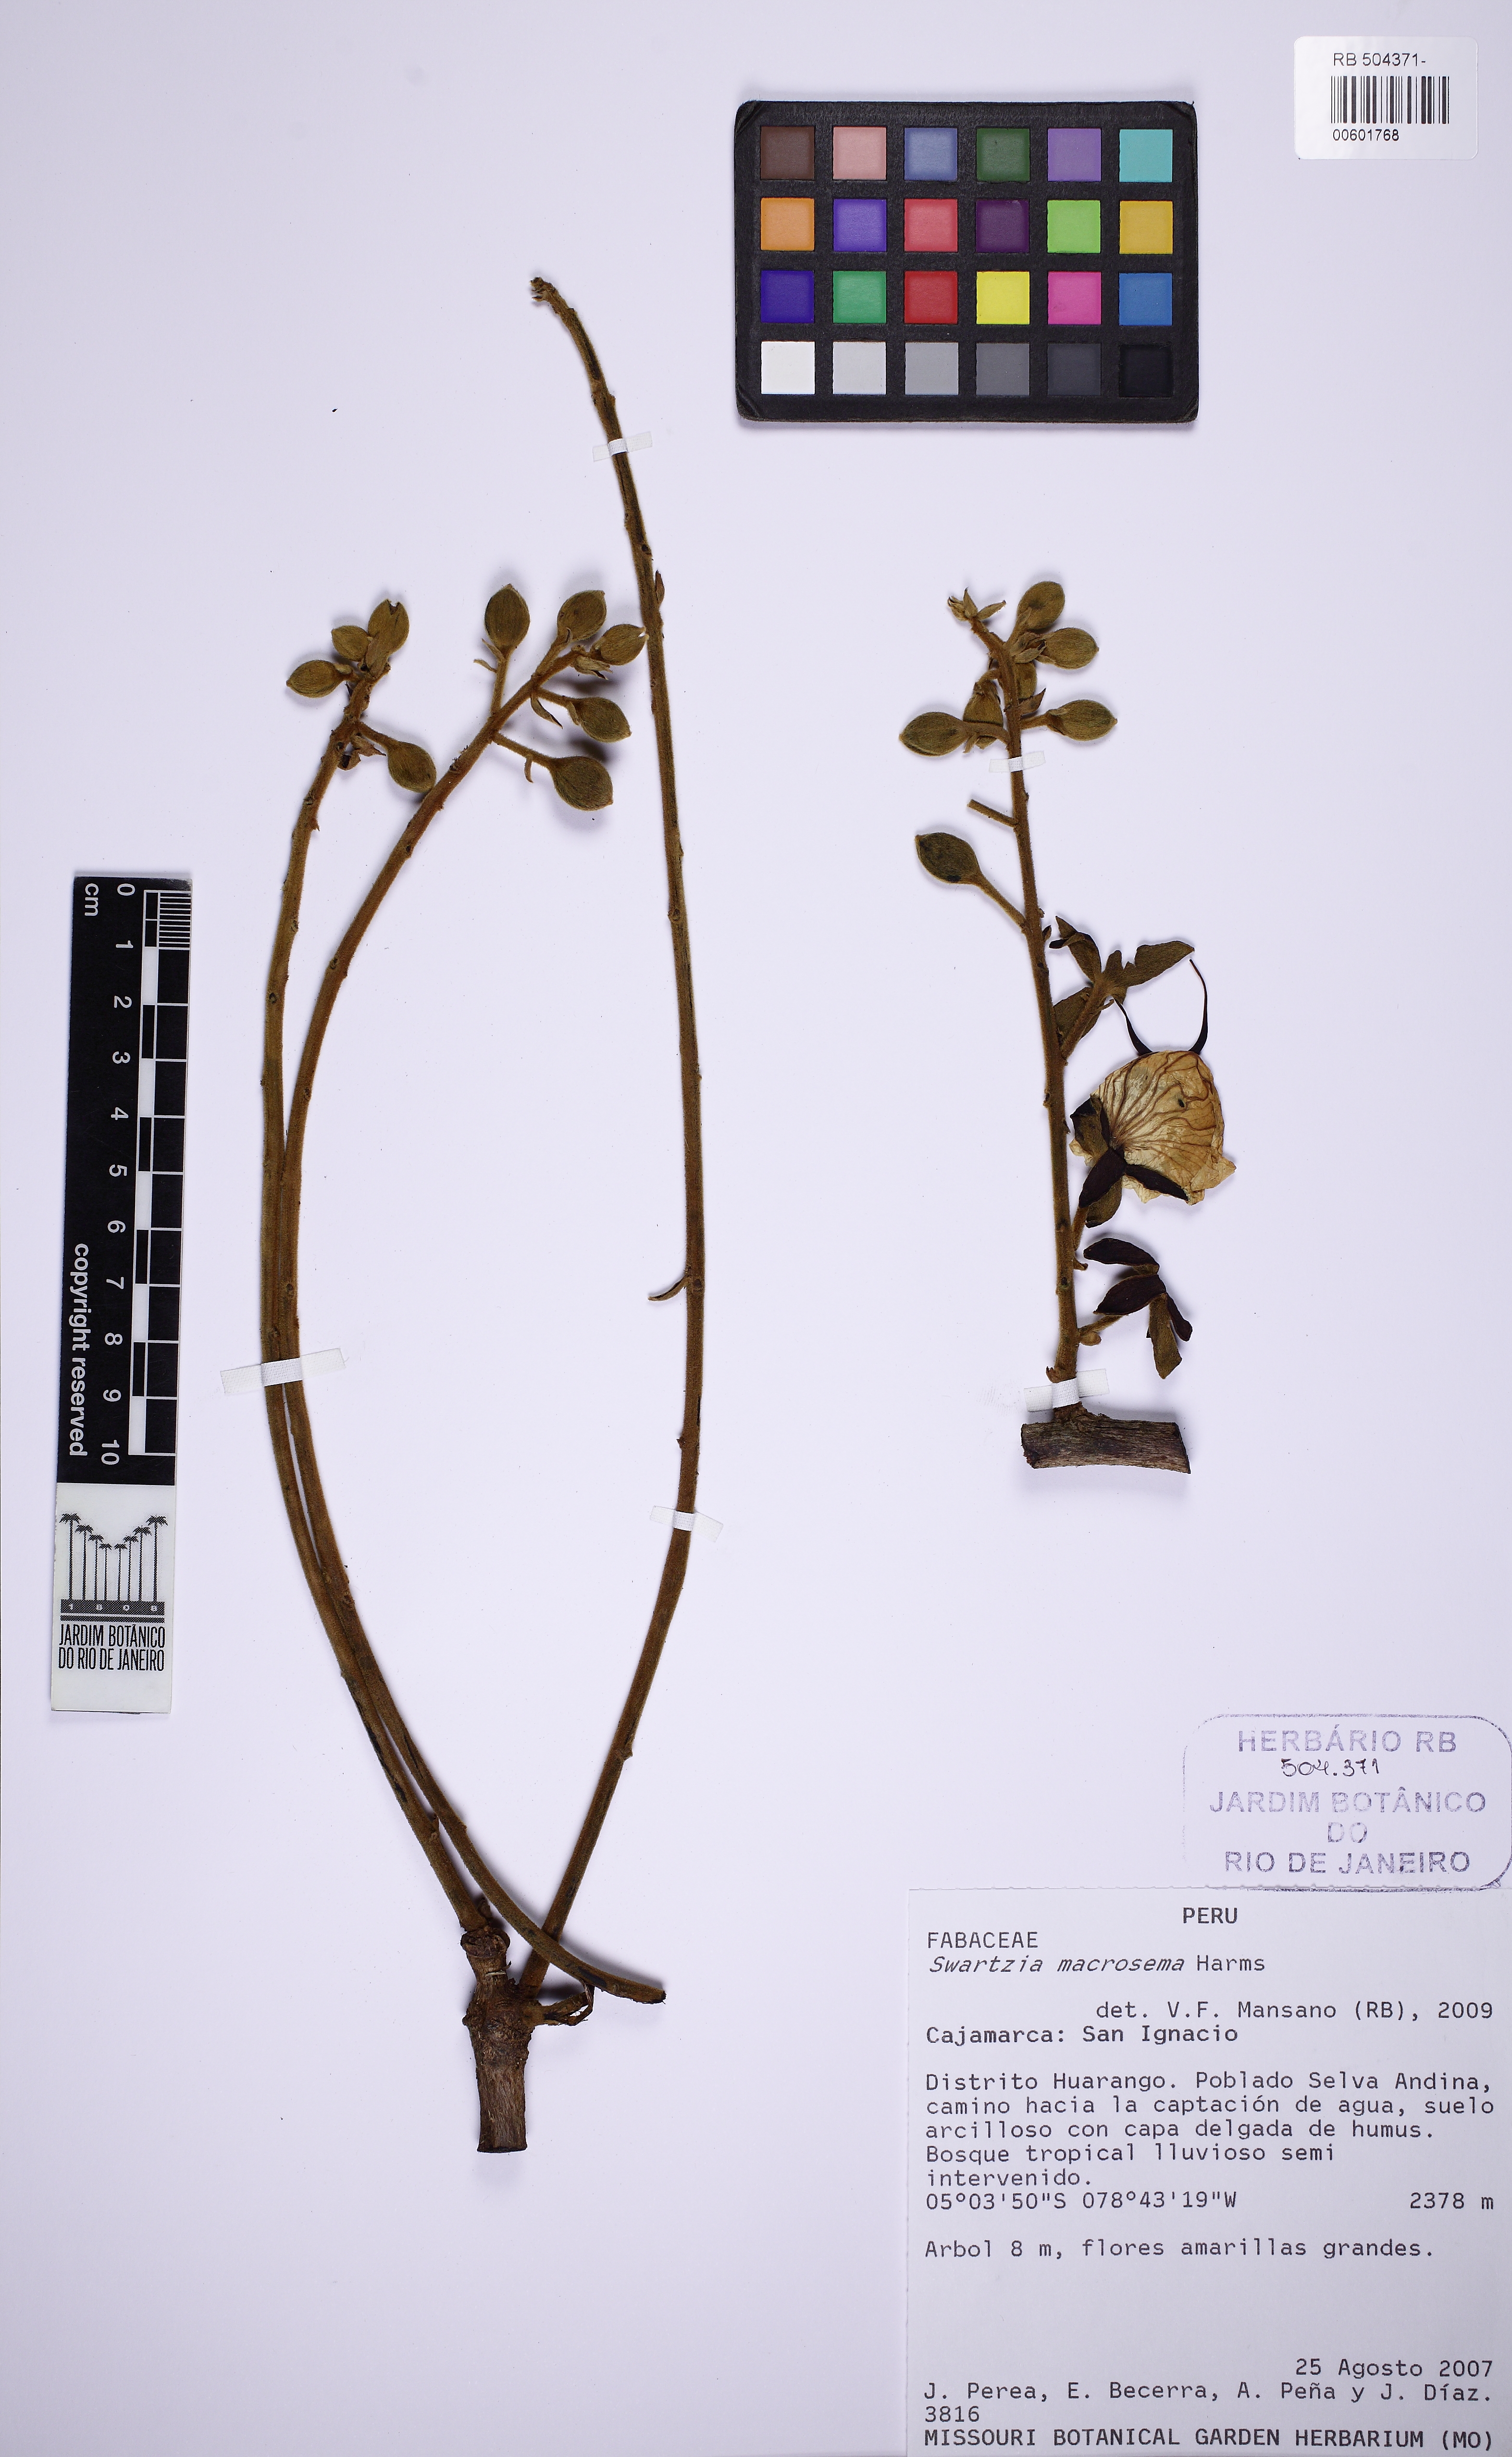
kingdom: Plantae
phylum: Tracheophyta
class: Magnoliopsida
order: Fabales
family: Fabaceae
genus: Swartzia
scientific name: Swartzia simplex
